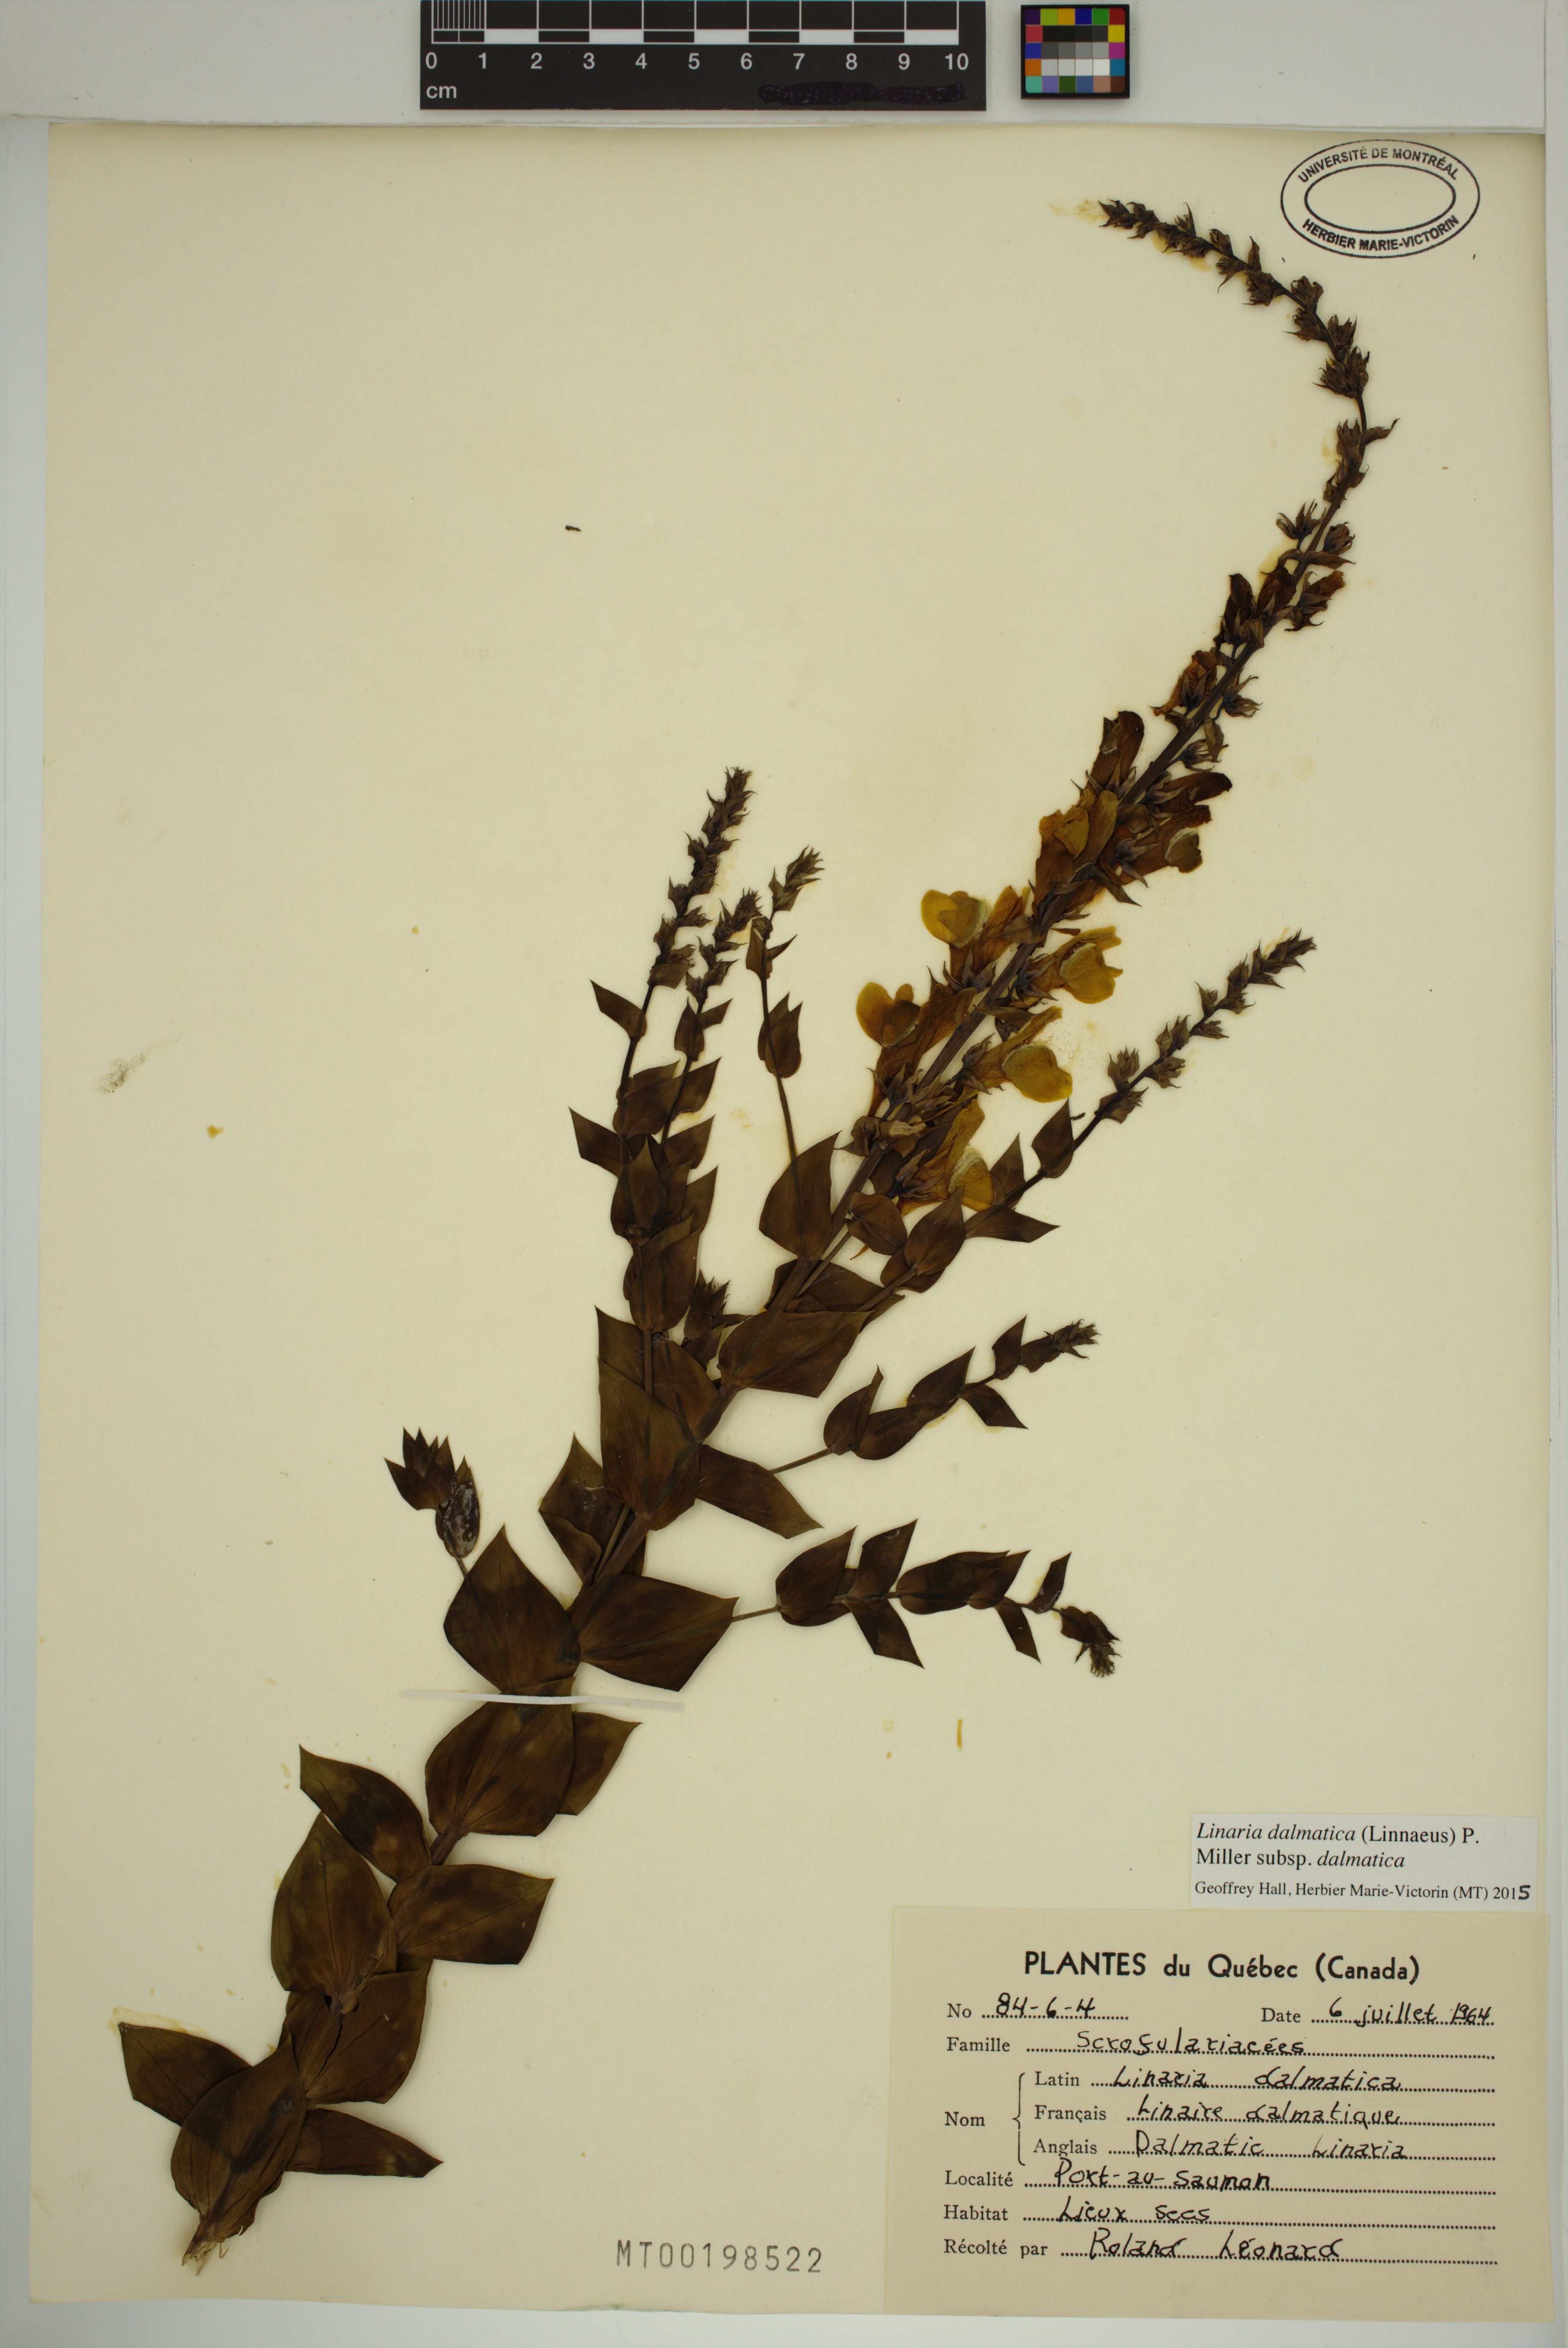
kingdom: Plantae
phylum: Tracheophyta
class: Magnoliopsida
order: Lamiales
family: Plantaginaceae
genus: Linaria
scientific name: Linaria dalmatica
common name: Dalmatian toadflax
